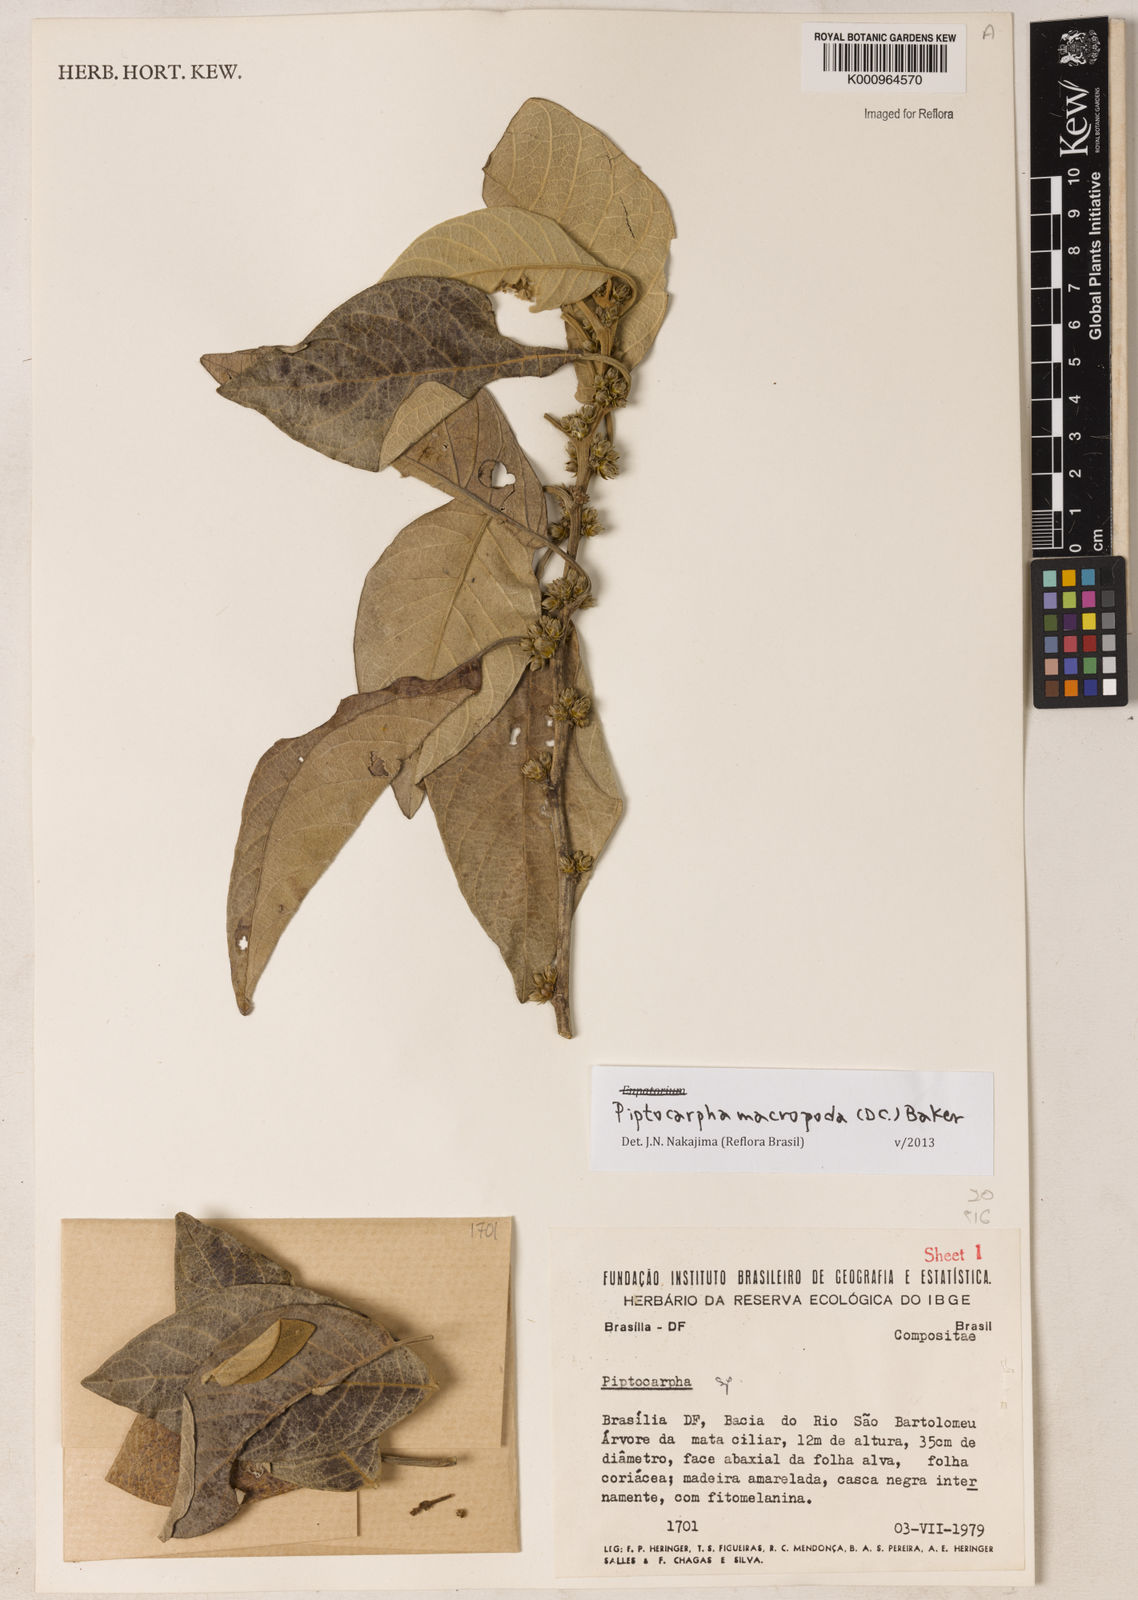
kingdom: Plantae
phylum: Tracheophyta
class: Magnoliopsida
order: Asterales
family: Asteraceae
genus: Piptocarpha
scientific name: Piptocarpha macropoda
